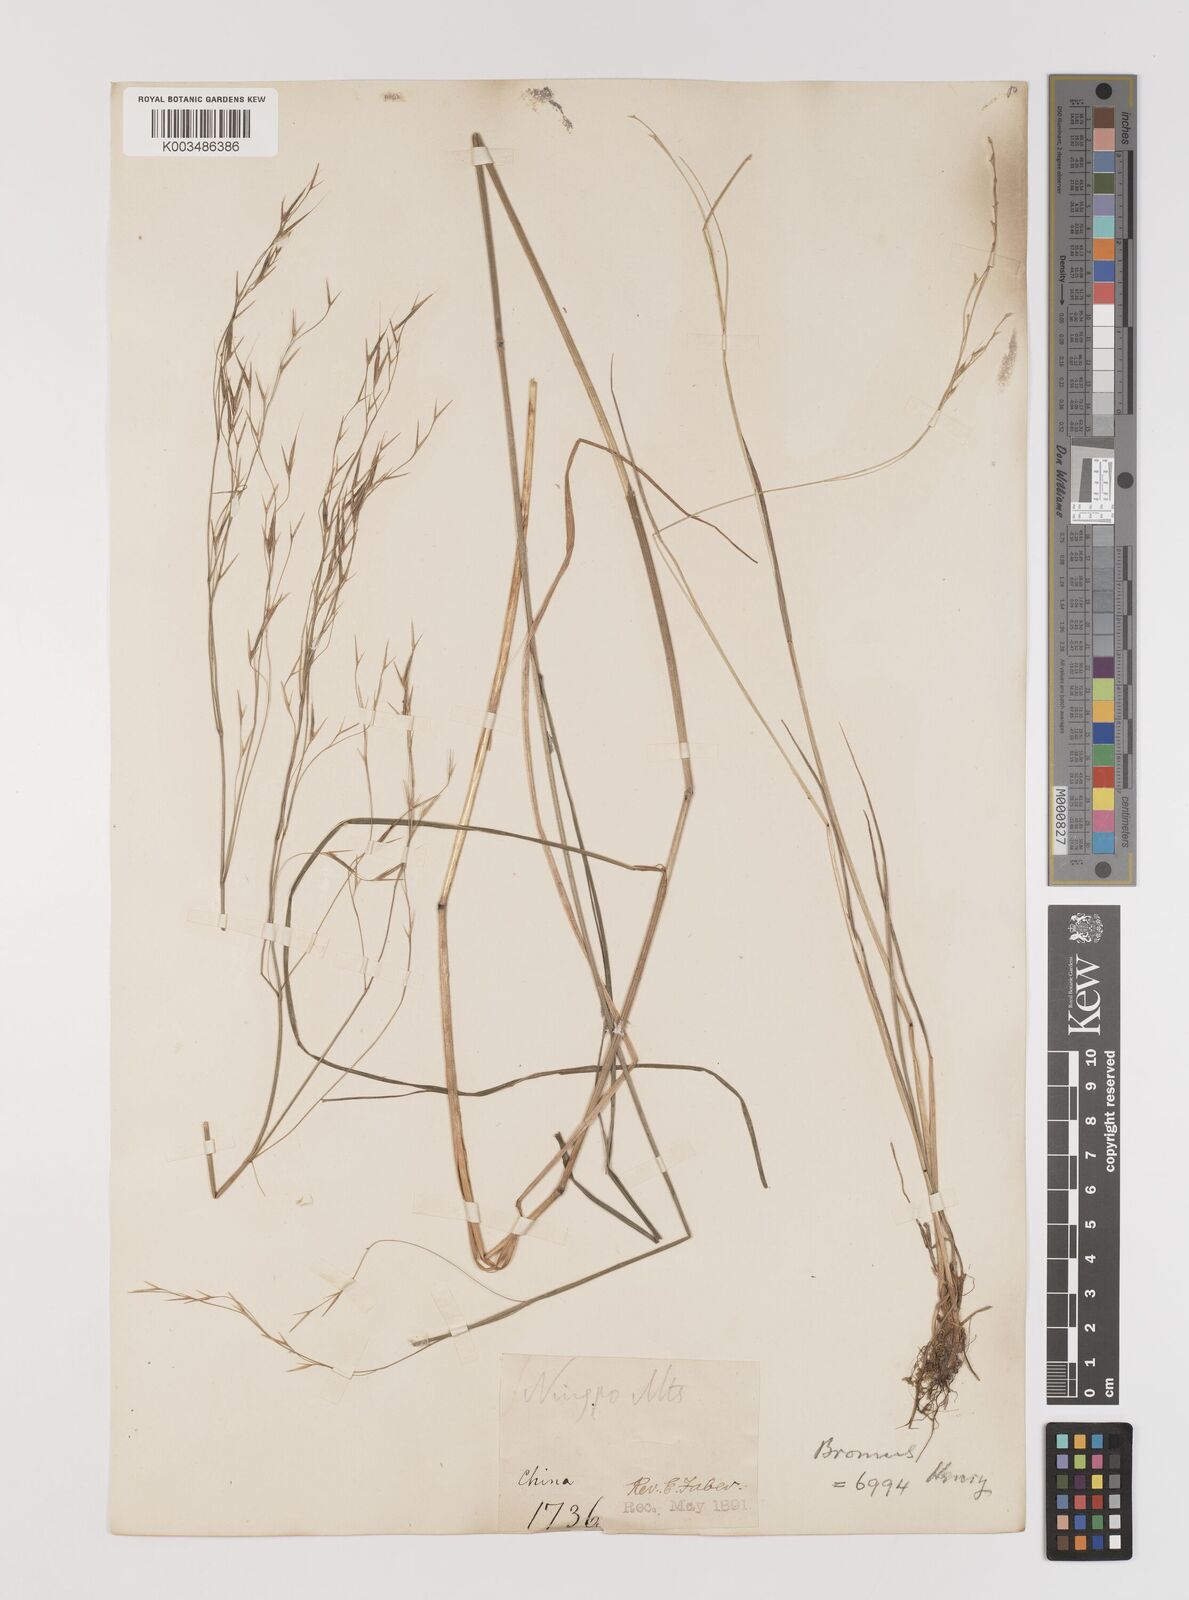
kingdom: Plantae
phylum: Tracheophyta
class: Liliopsida
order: Poales
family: Poaceae
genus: Bromus
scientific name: Bromus
